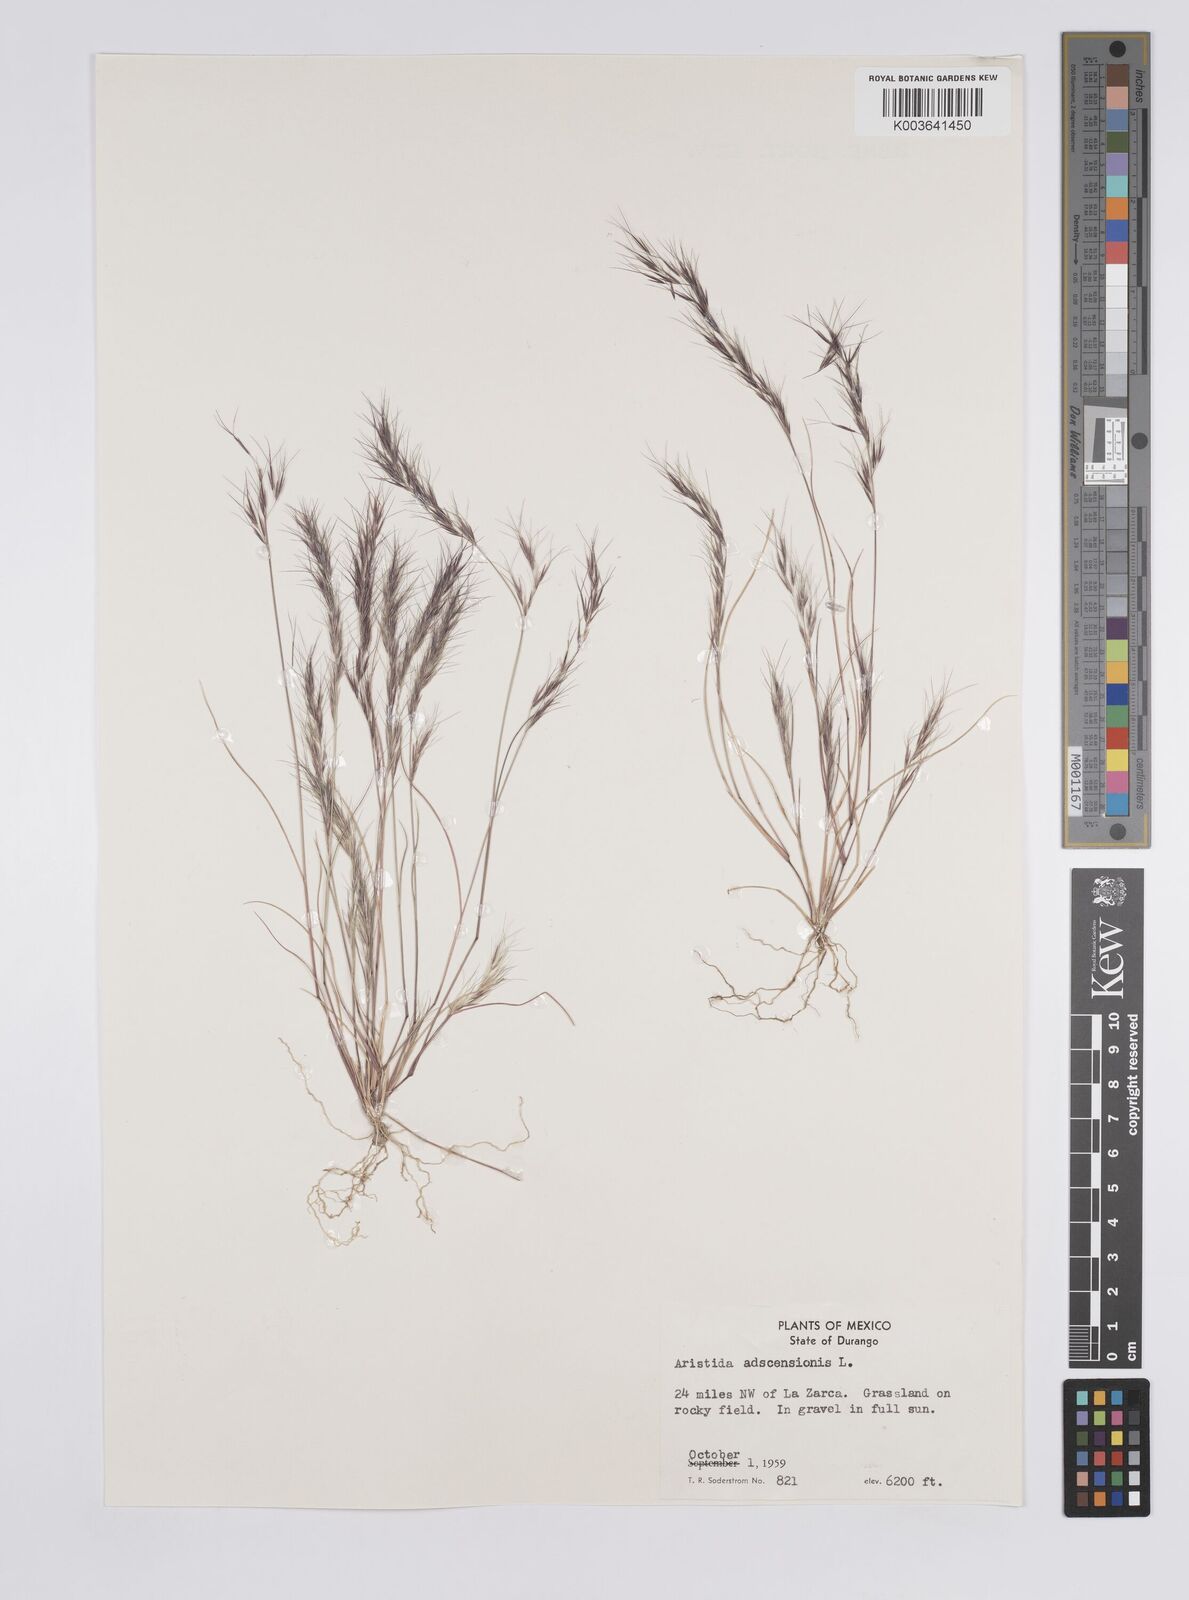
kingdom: Plantae
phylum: Tracheophyta
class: Liliopsida
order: Poales
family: Poaceae
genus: Aristida
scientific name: Aristida adscensionis
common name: Sixweeks threeawn
